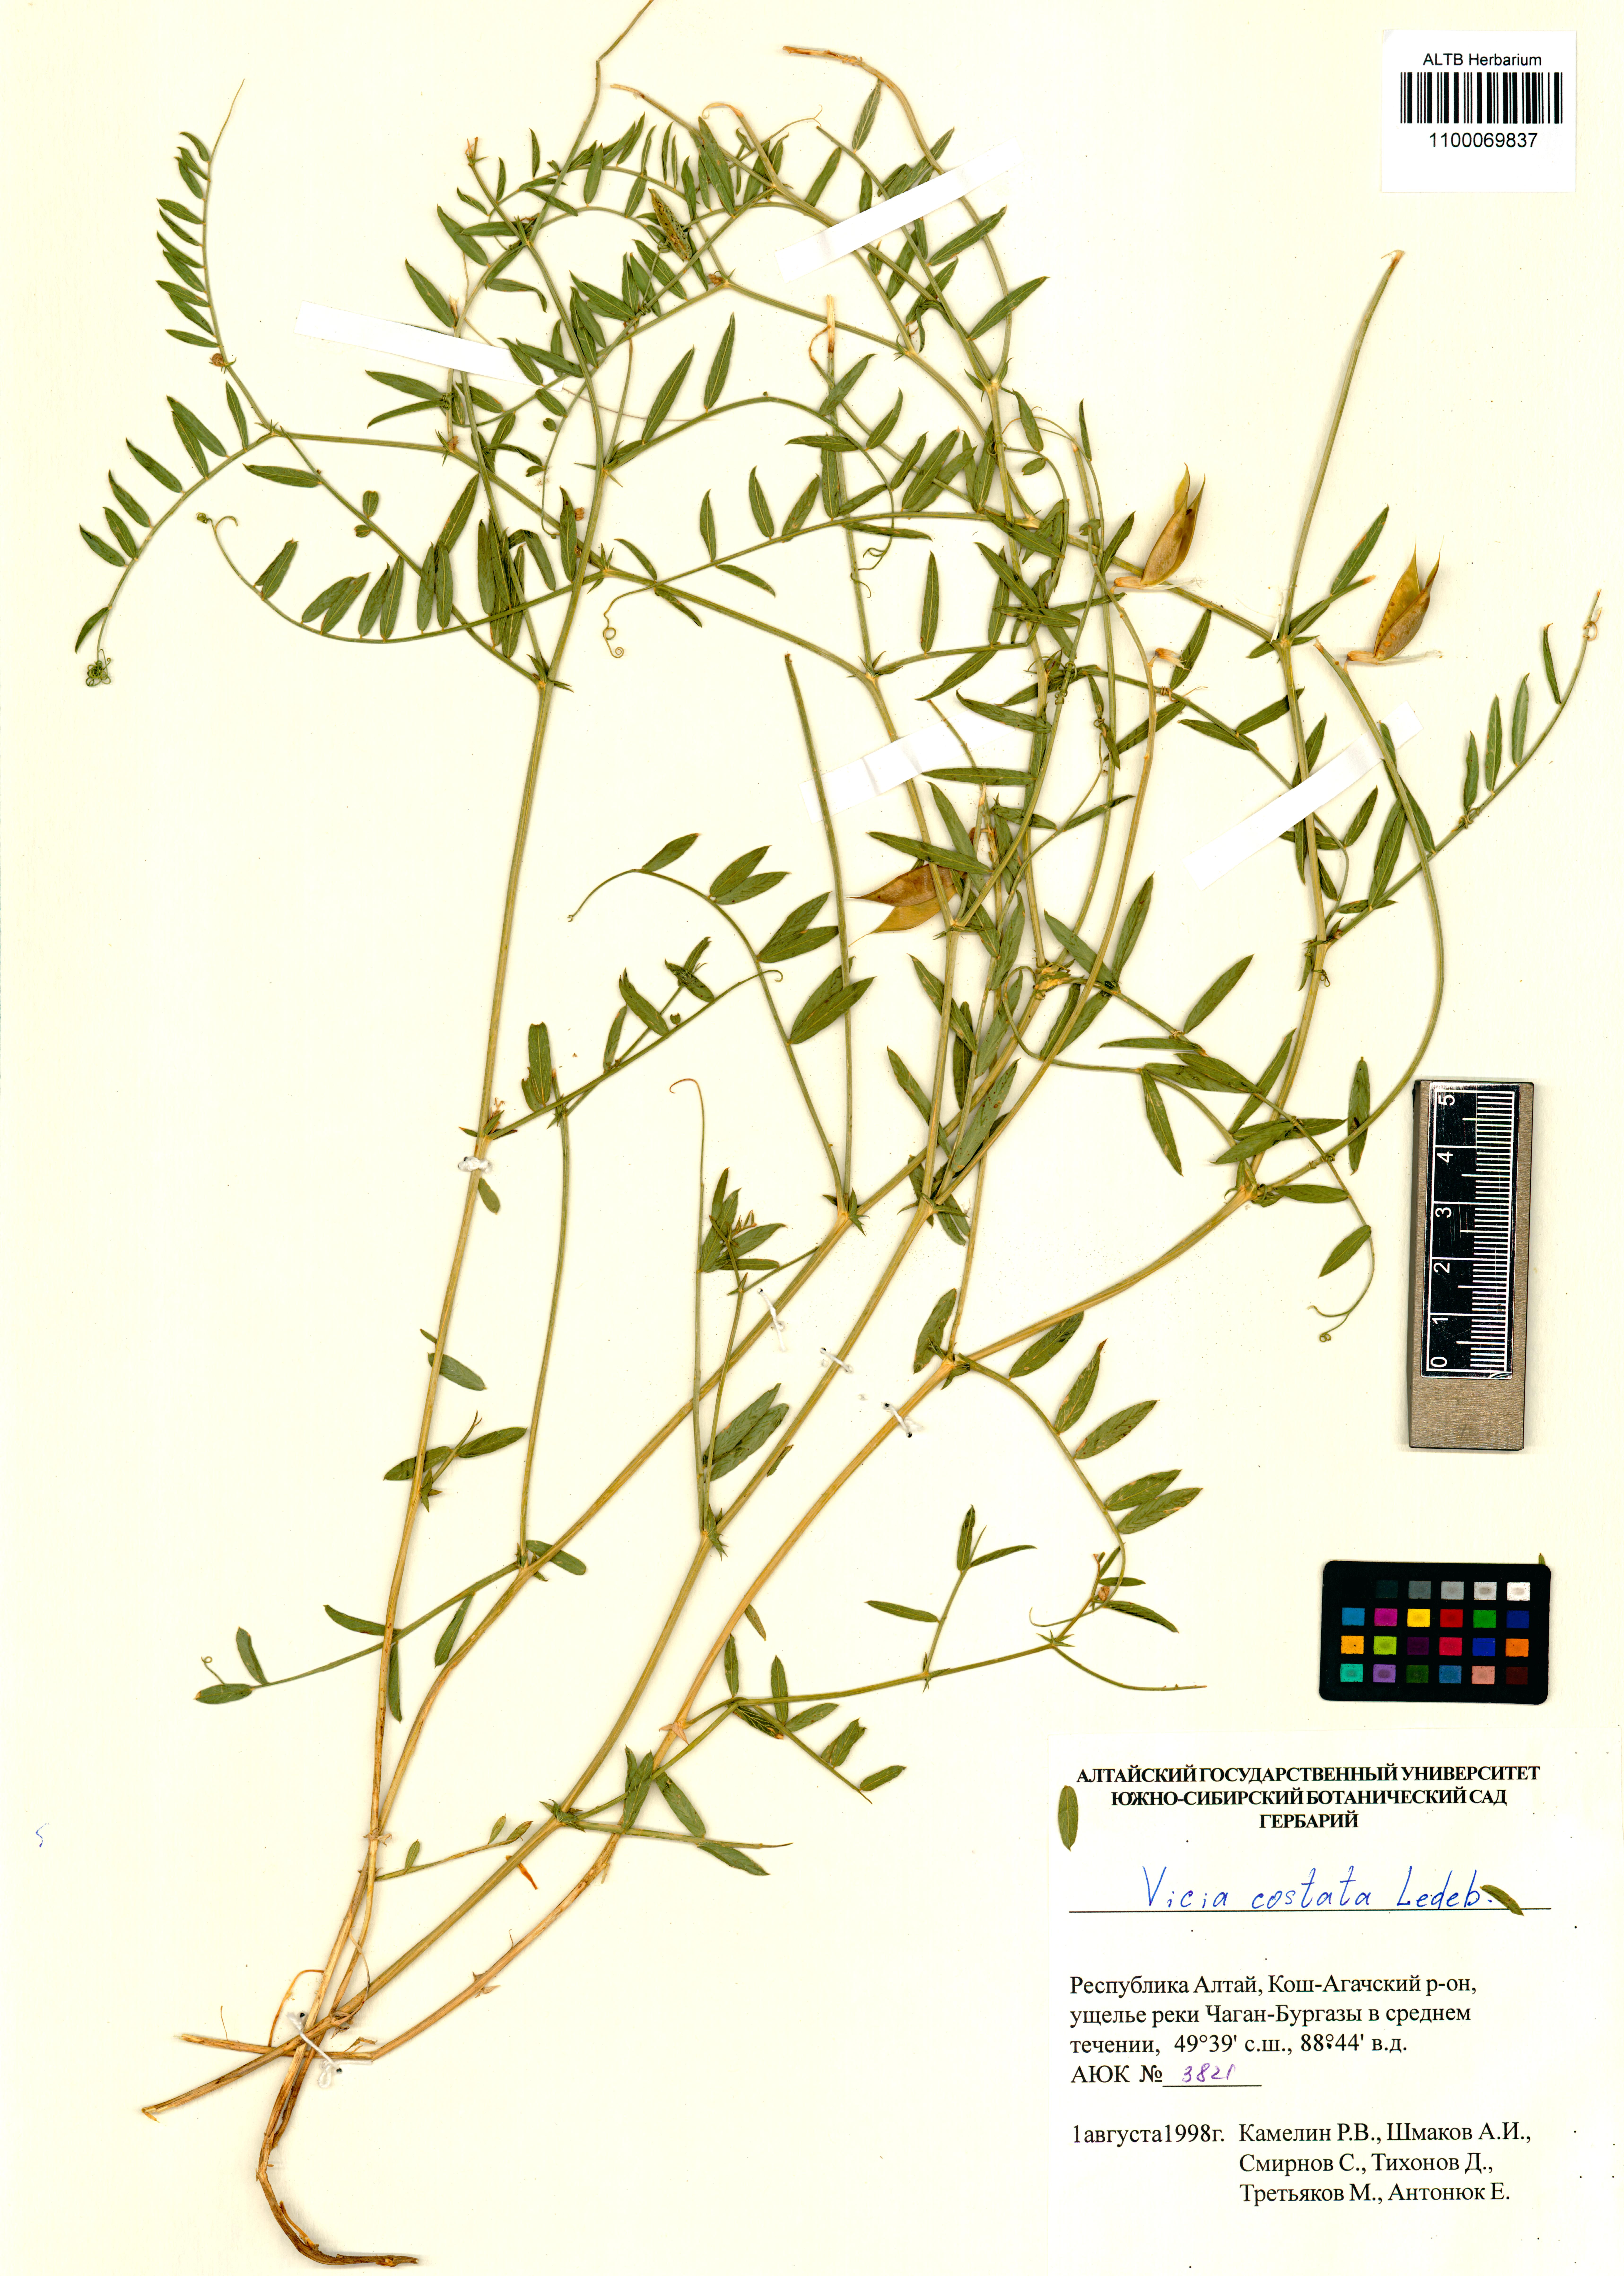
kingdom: Plantae
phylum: Tracheophyta
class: Magnoliopsida
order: Fabales
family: Fabaceae
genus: Vicia
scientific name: Vicia costata
